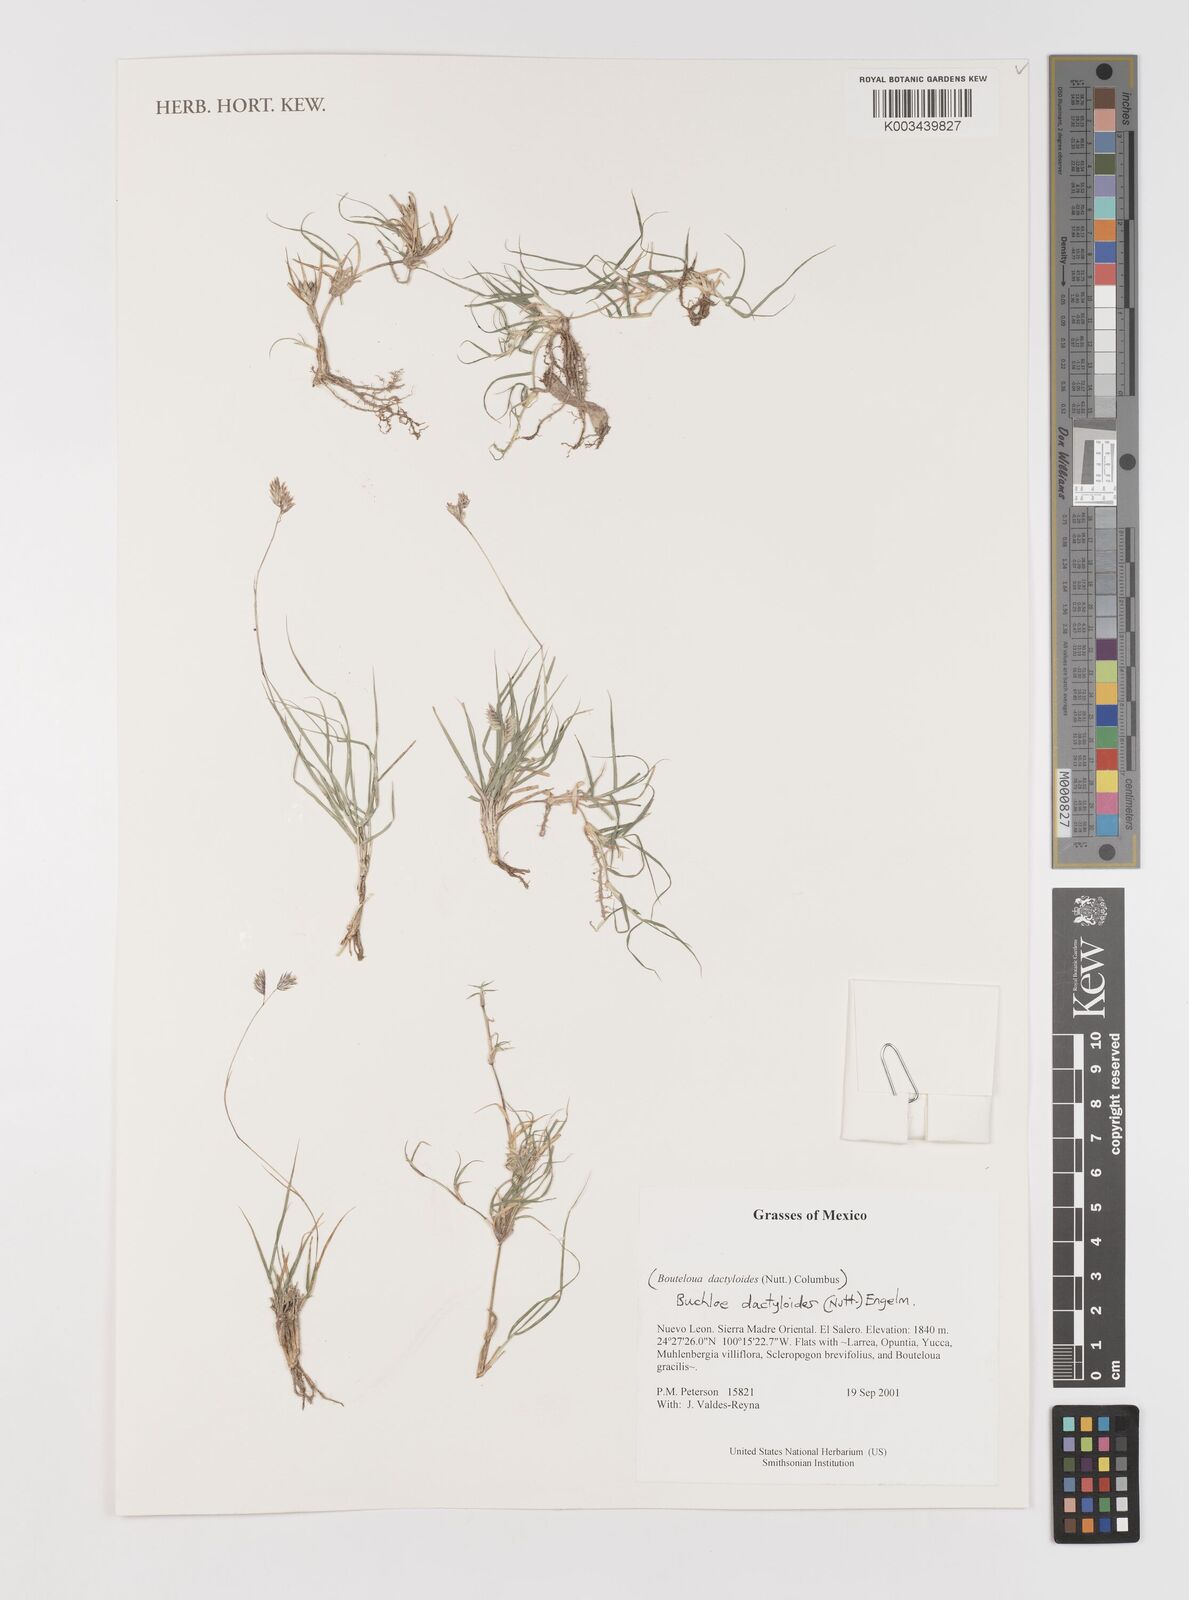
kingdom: Plantae
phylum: Tracheophyta
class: Liliopsida
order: Poales
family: Poaceae
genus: Bouteloua
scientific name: Bouteloua dactyloides
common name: Buffalo grass
